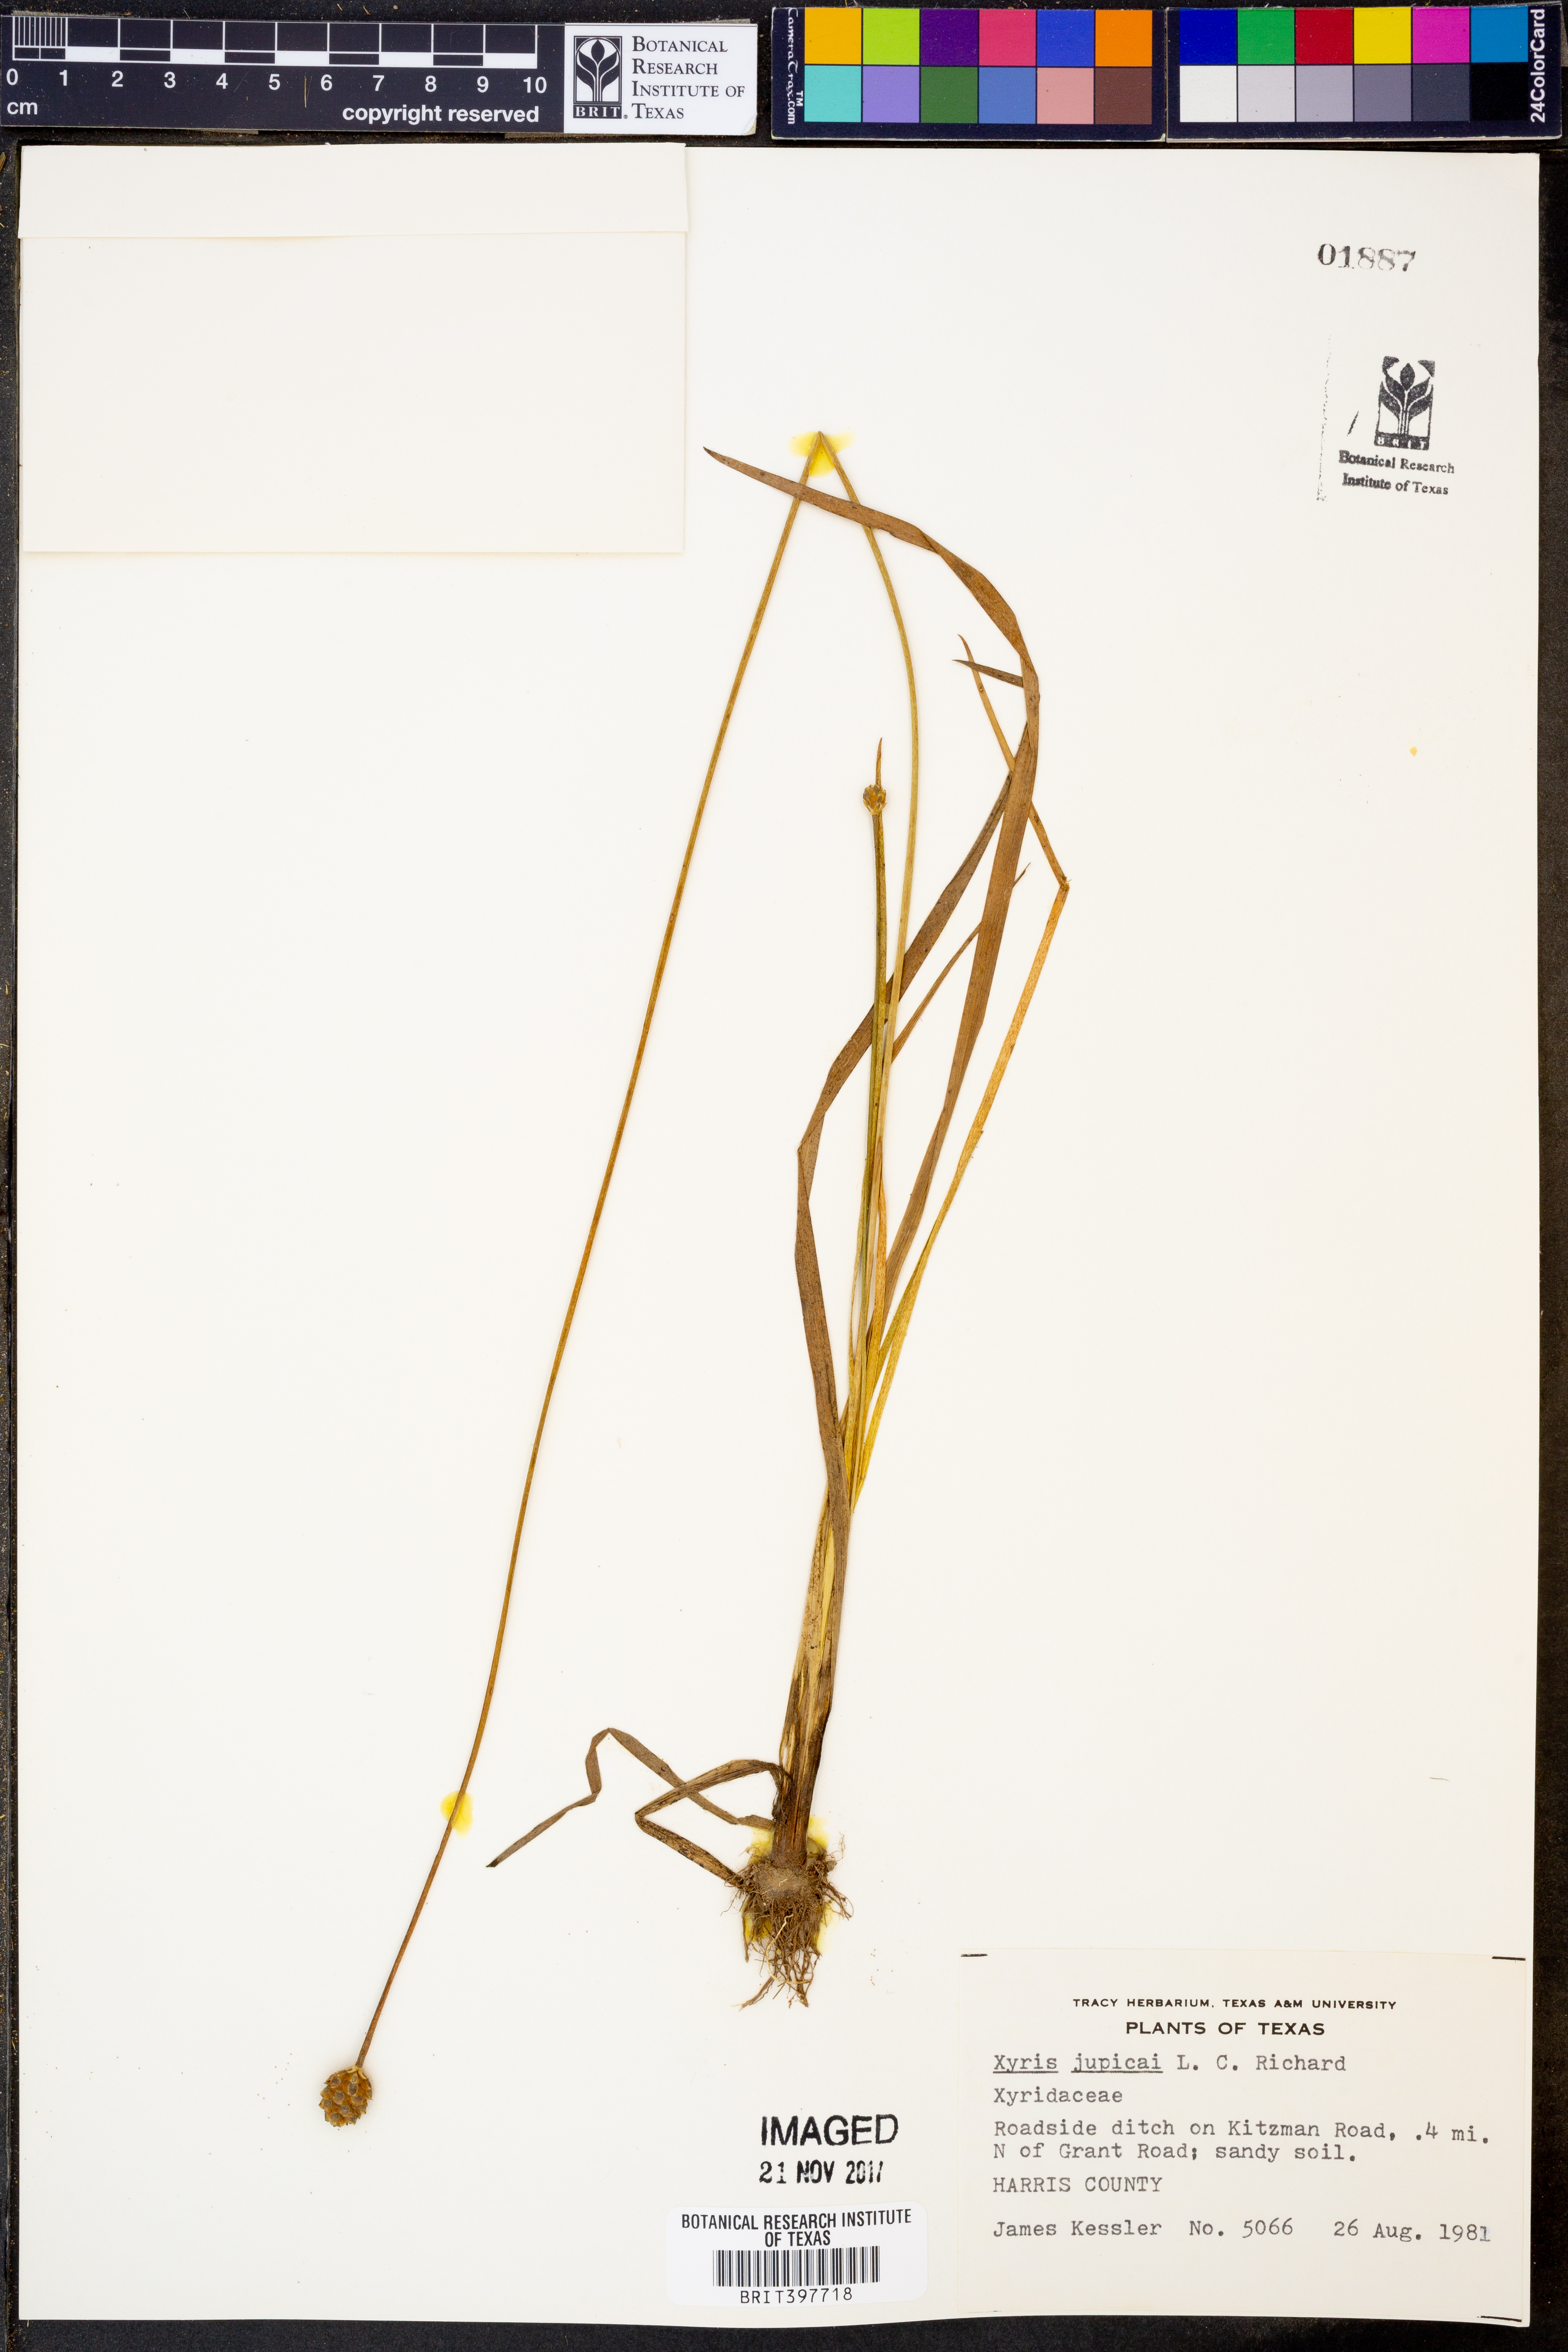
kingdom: Plantae
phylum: Tracheophyta
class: Liliopsida
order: Poales
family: Xyridaceae
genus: Xyris
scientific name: Xyris jupicai
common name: Richard's yelloweyed grass
